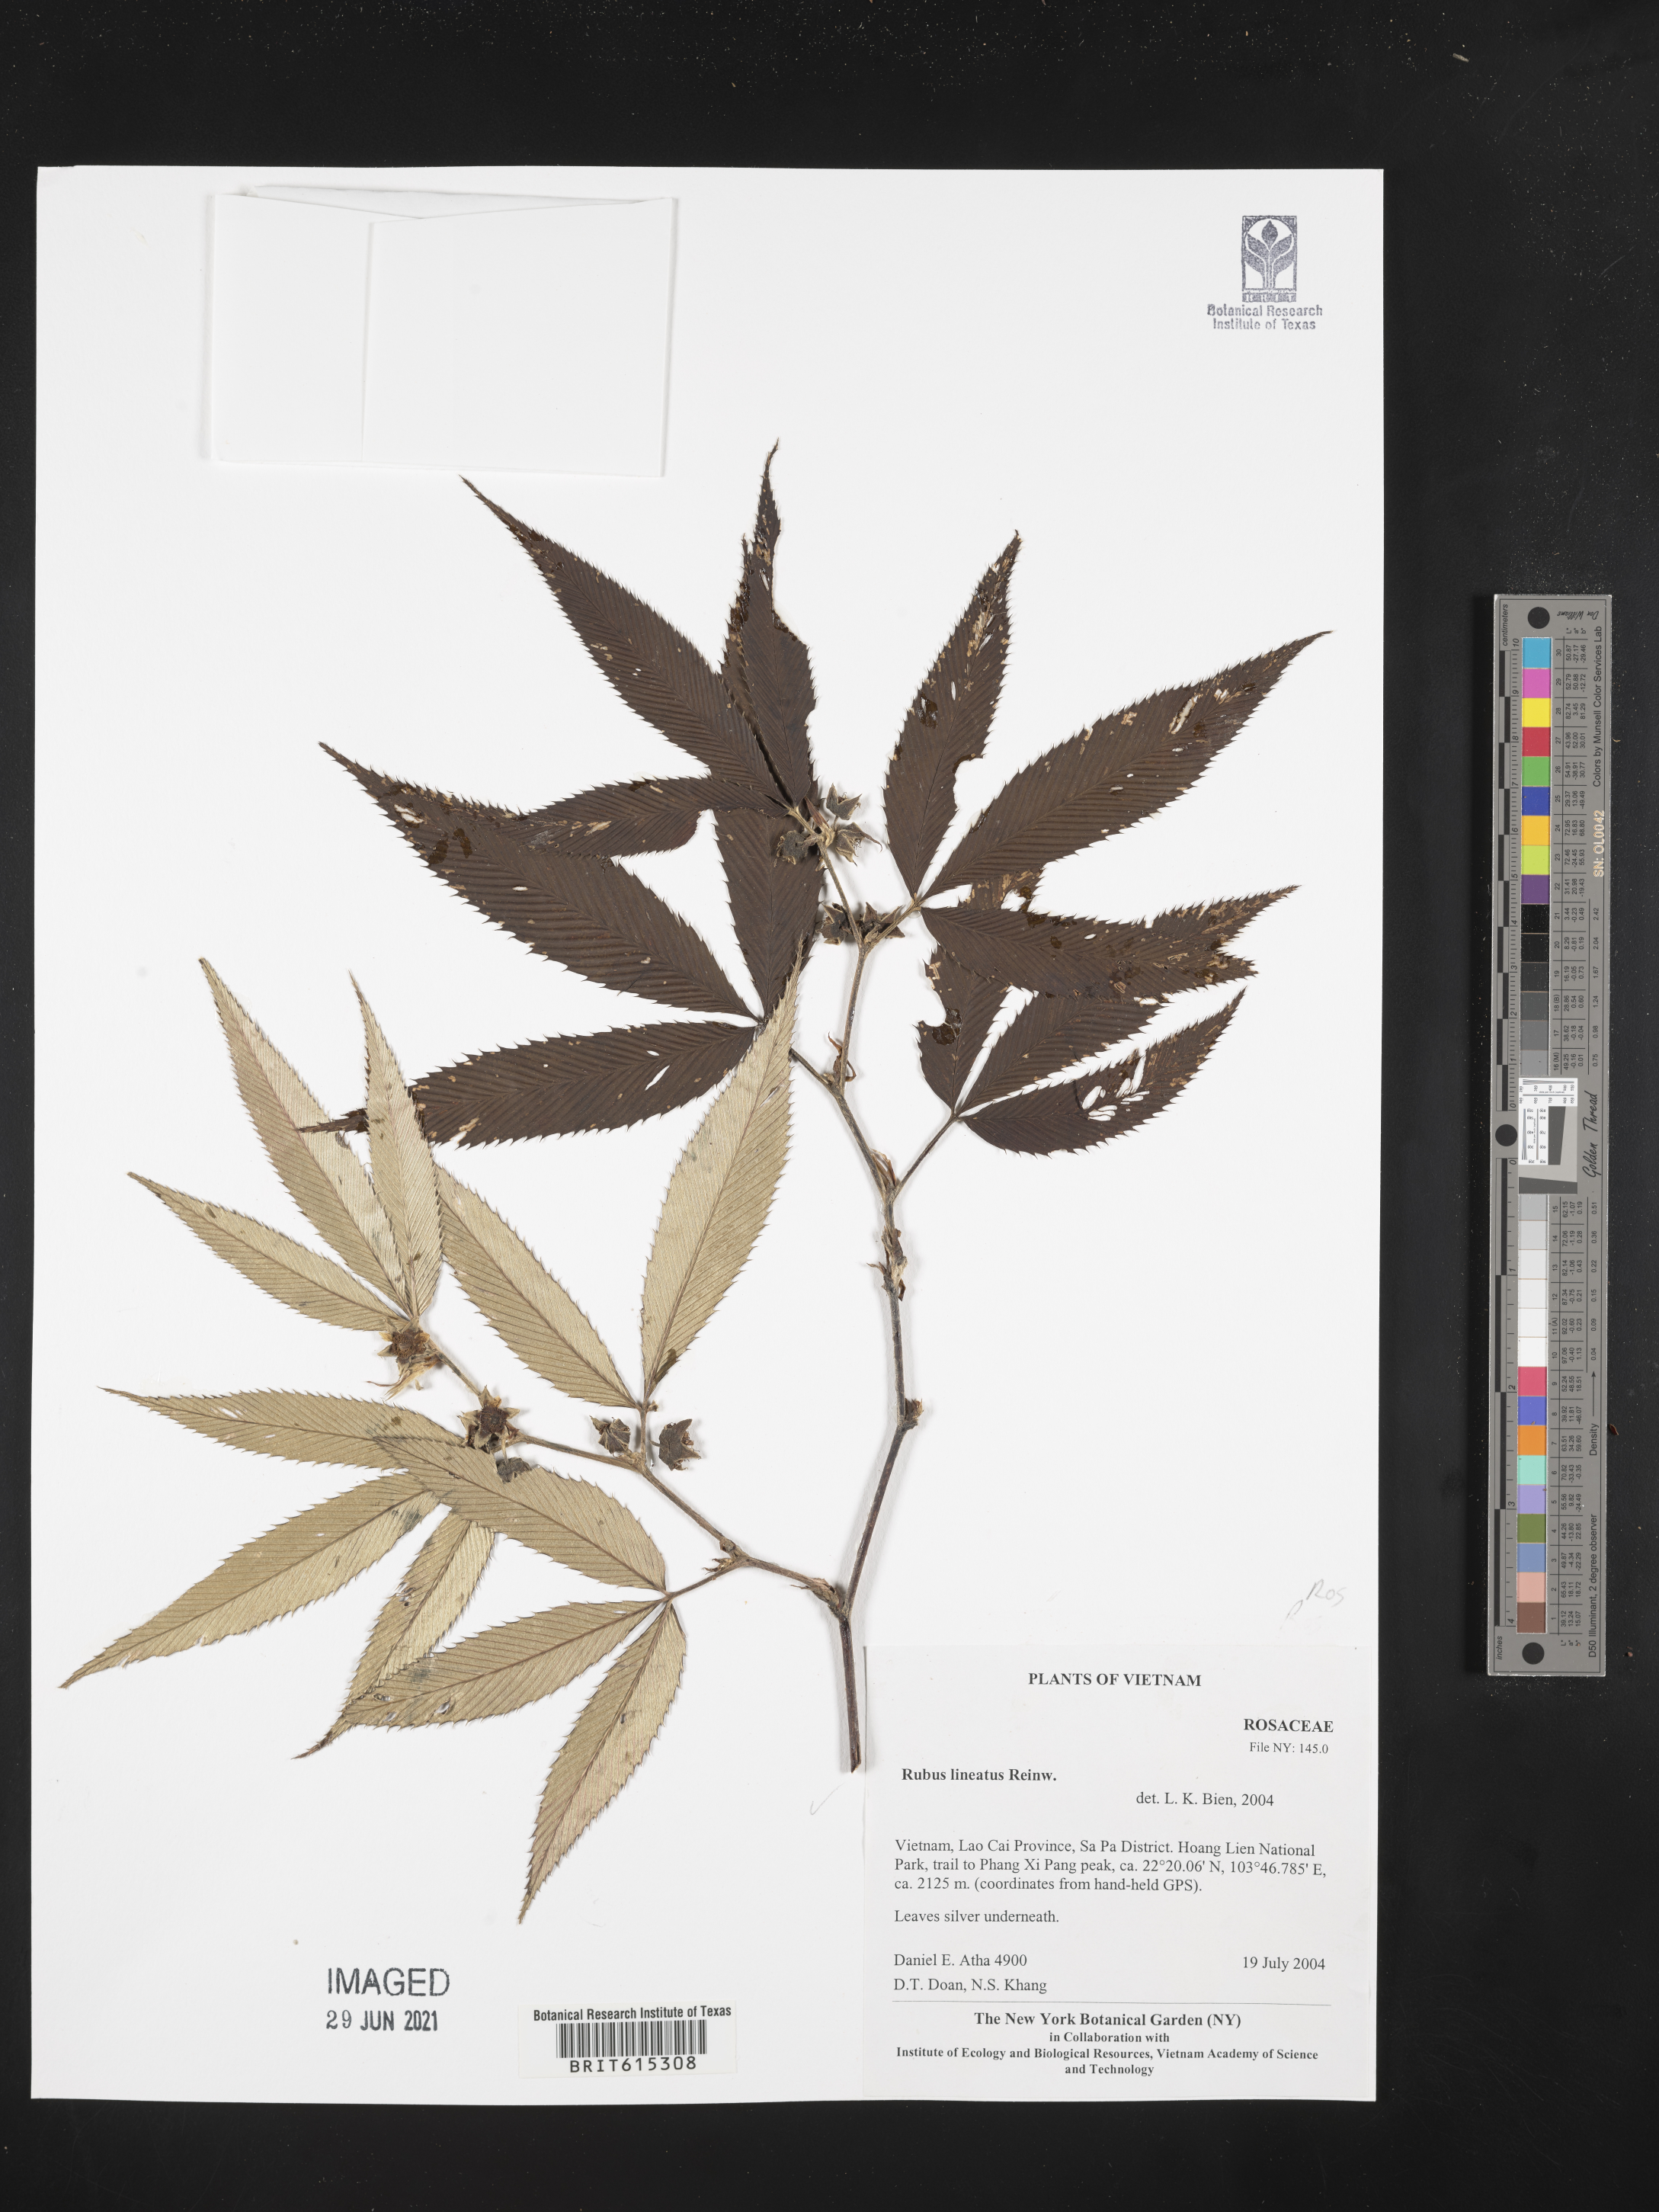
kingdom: Plantae
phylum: Tracheophyta
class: Magnoliopsida
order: Rosales
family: Rosaceae
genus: Rubus
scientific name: Rubus
